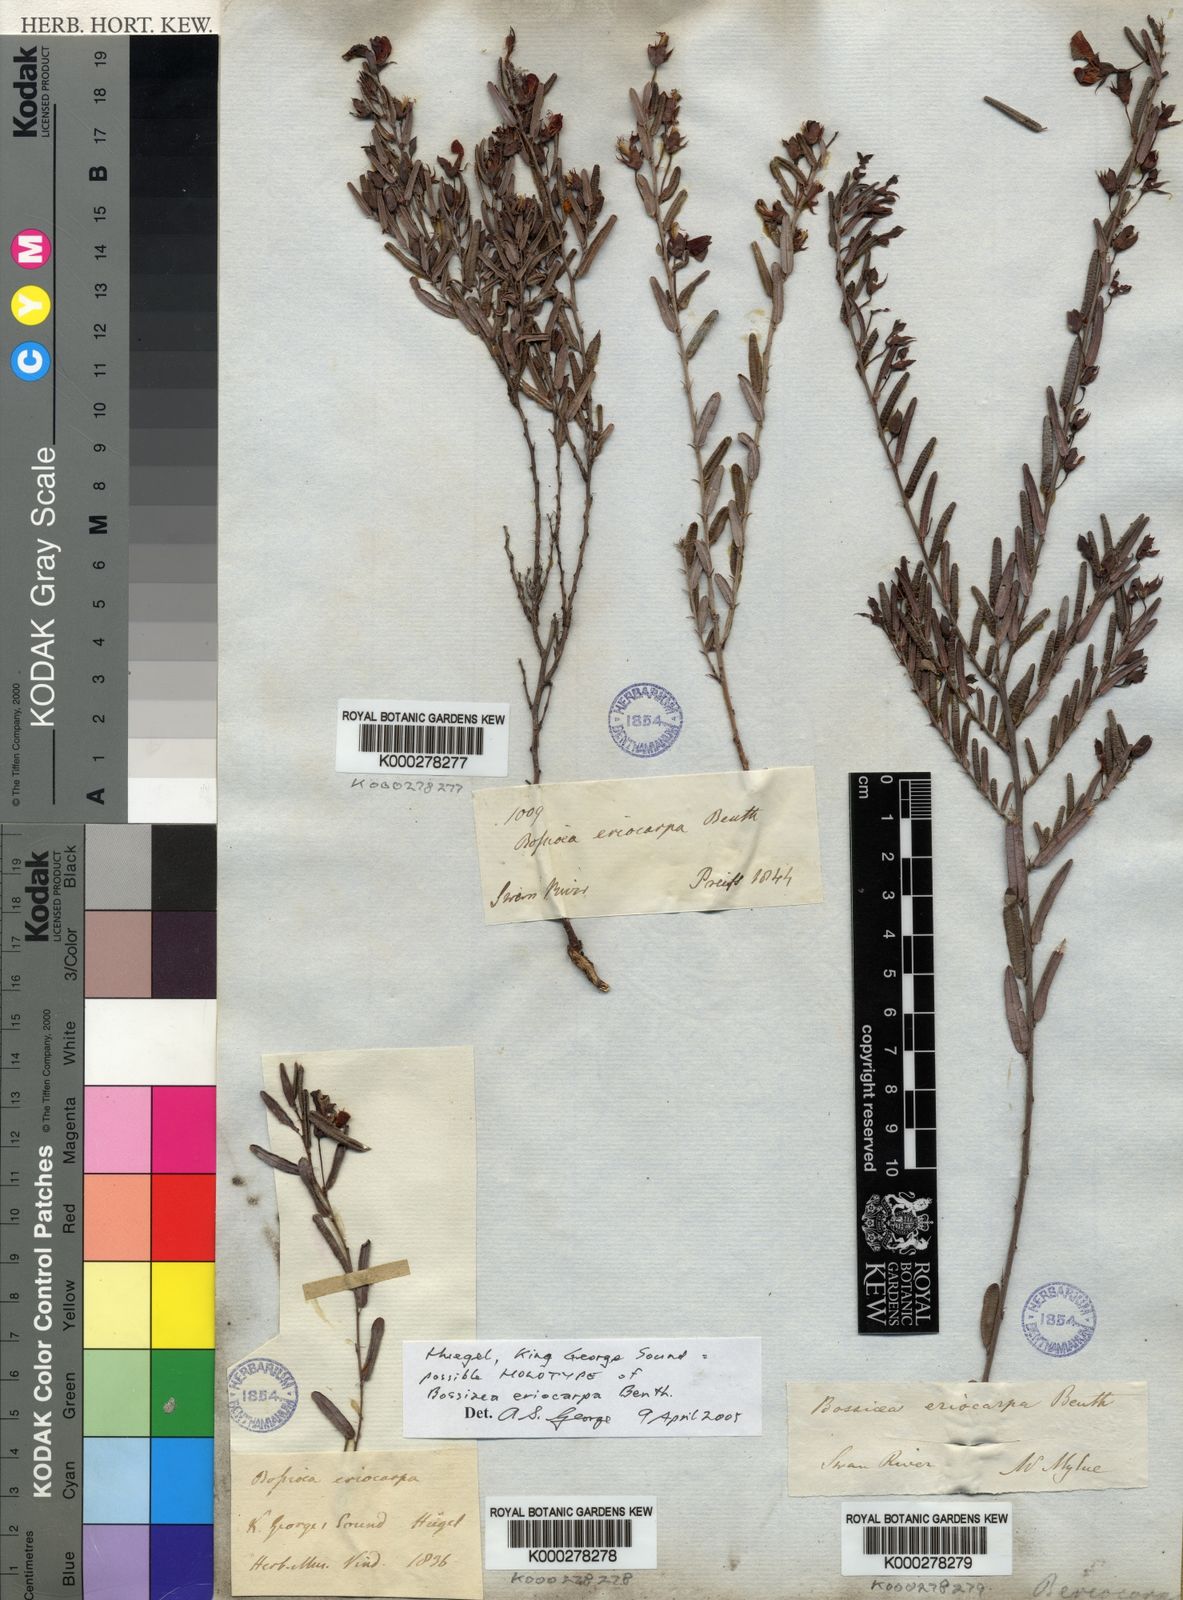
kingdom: Plantae
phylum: Tracheophyta
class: Magnoliopsida
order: Fabales
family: Fabaceae
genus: Bossiaea
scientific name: Bossiaea eriocarpa
